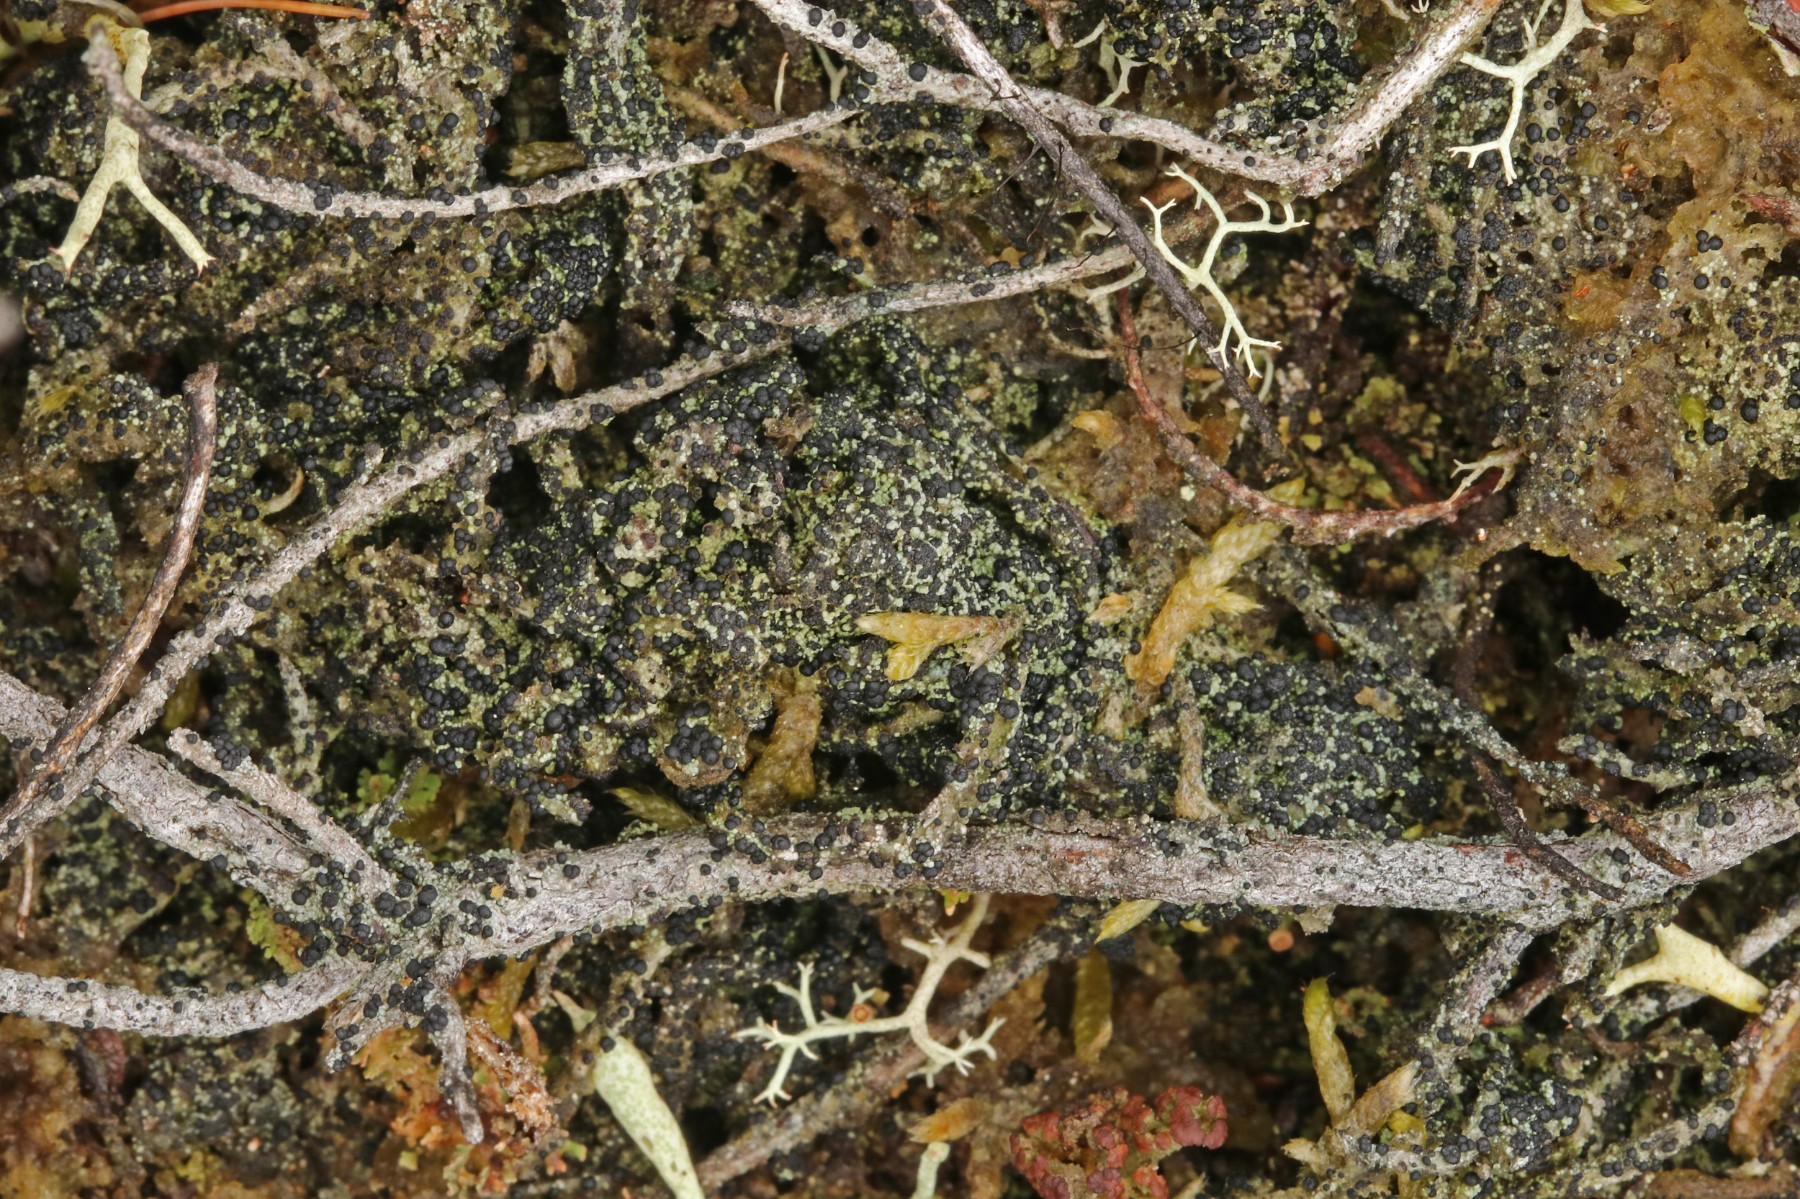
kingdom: Fungi
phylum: Ascomycota
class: Lecanoromycetes
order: Lecanorales
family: Byssolomataceae
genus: Micarea
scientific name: Micarea lignaria
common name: tørve-knaplav
